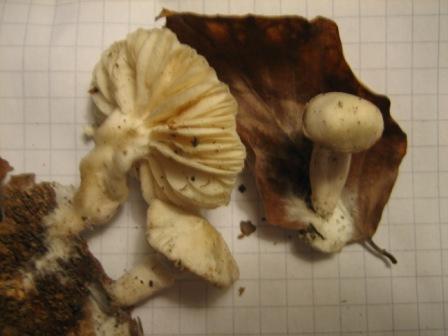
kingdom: Fungi
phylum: Basidiomycota
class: Agaricomycetes
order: Agaricales
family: Tubariaceae
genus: Tubaria
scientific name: Tubaria furfuracea
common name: kliddet fnughat
